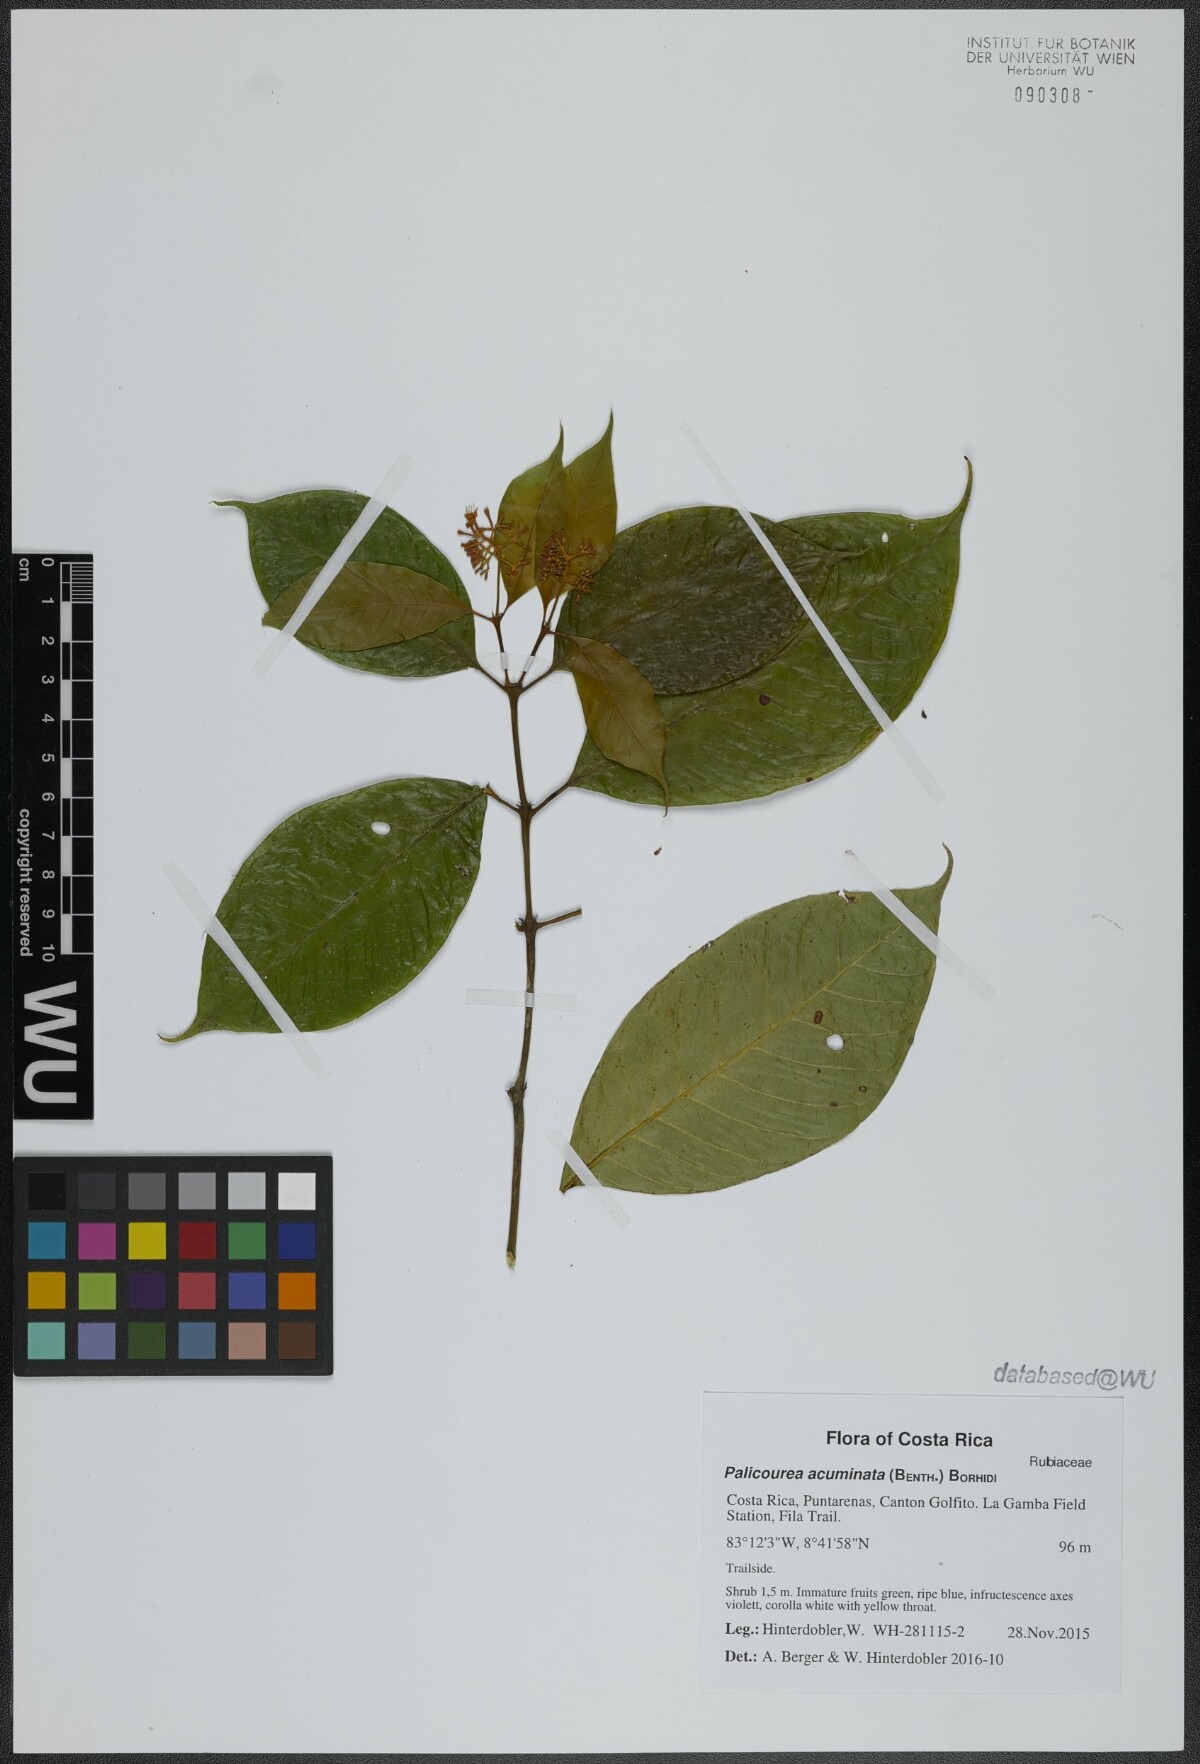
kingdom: Plantae
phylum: Tracheophyta
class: Magnoliopsida
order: Gentianales
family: Rubiaceae
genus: Palicourea
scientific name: Palicourea acuminata
